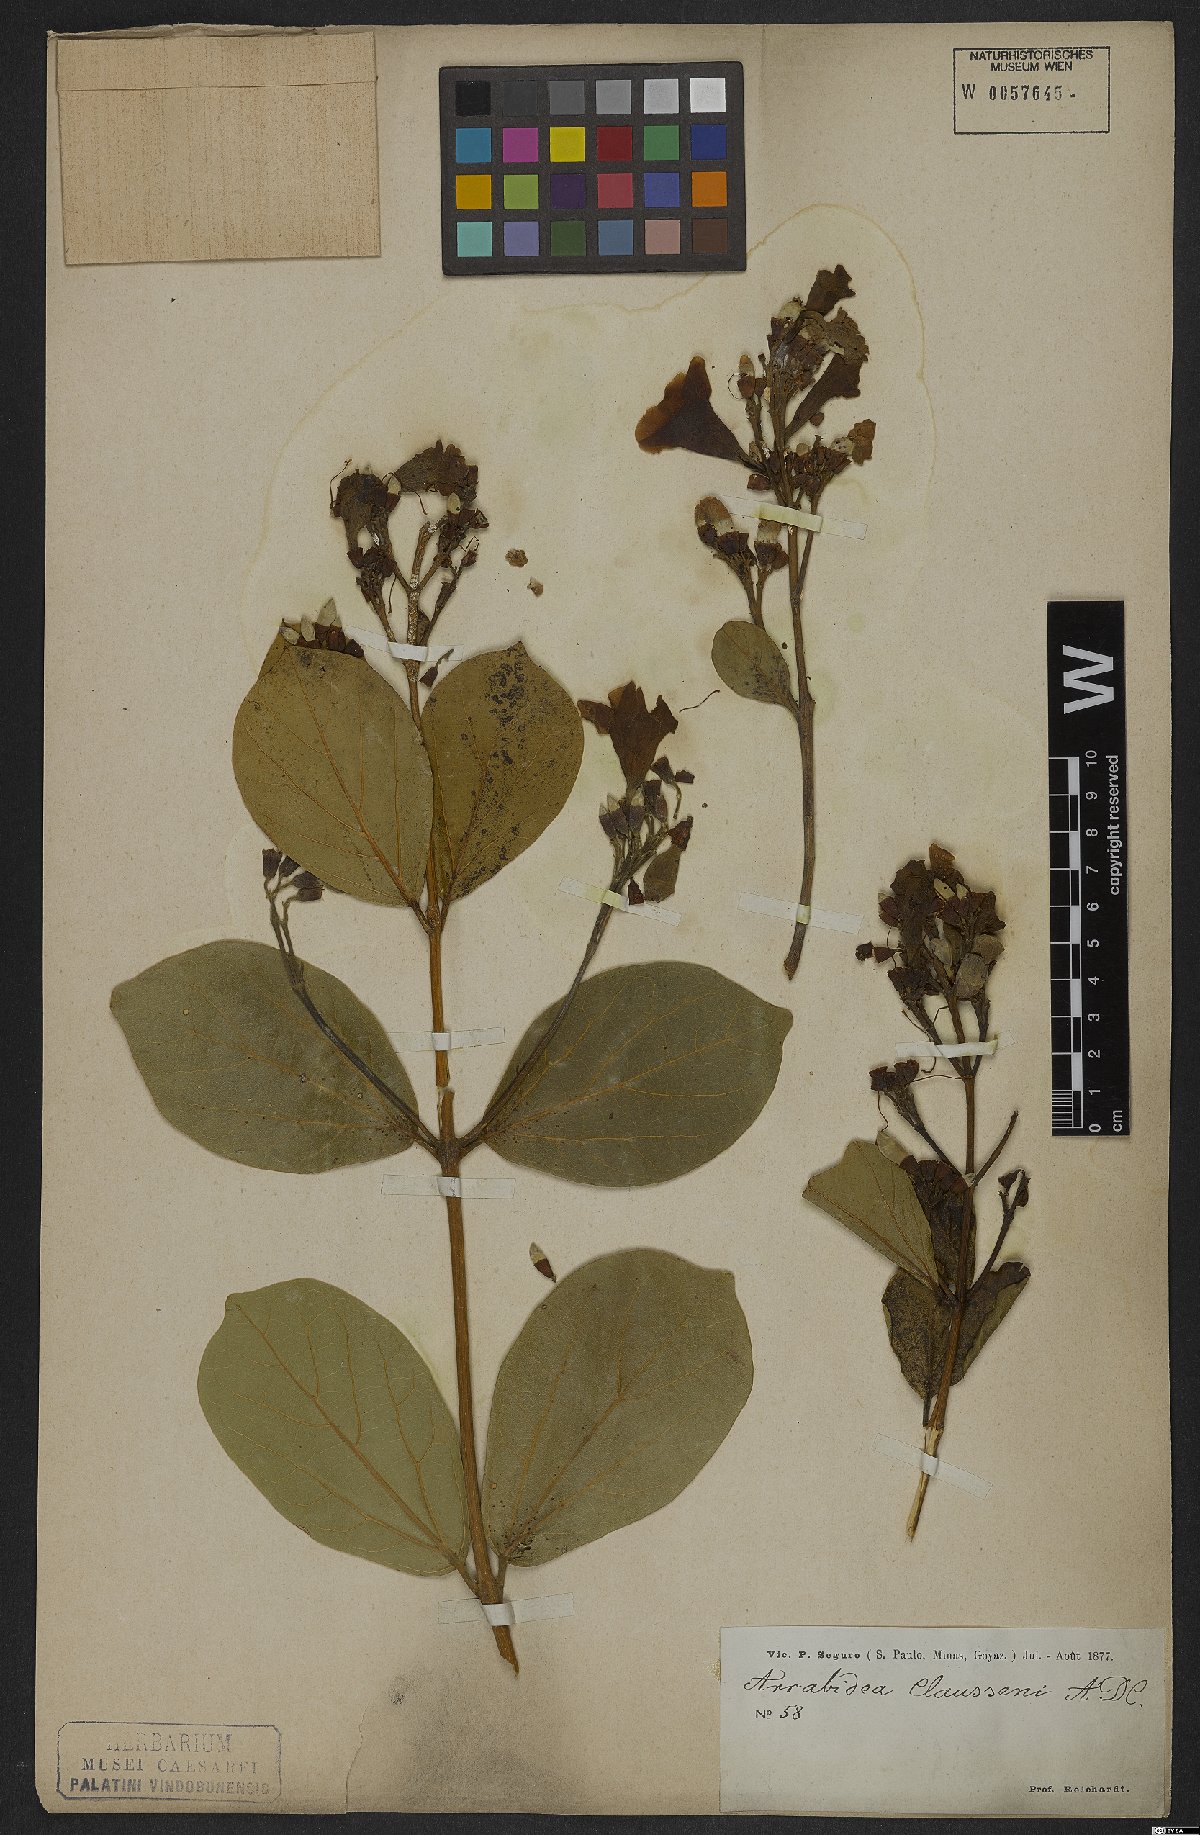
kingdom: Plantae
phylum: Tracheophyta
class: Magnoliopsida
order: Lamiales
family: Bignoniaceae
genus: Xylophragma
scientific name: Xylophragma claussenii
